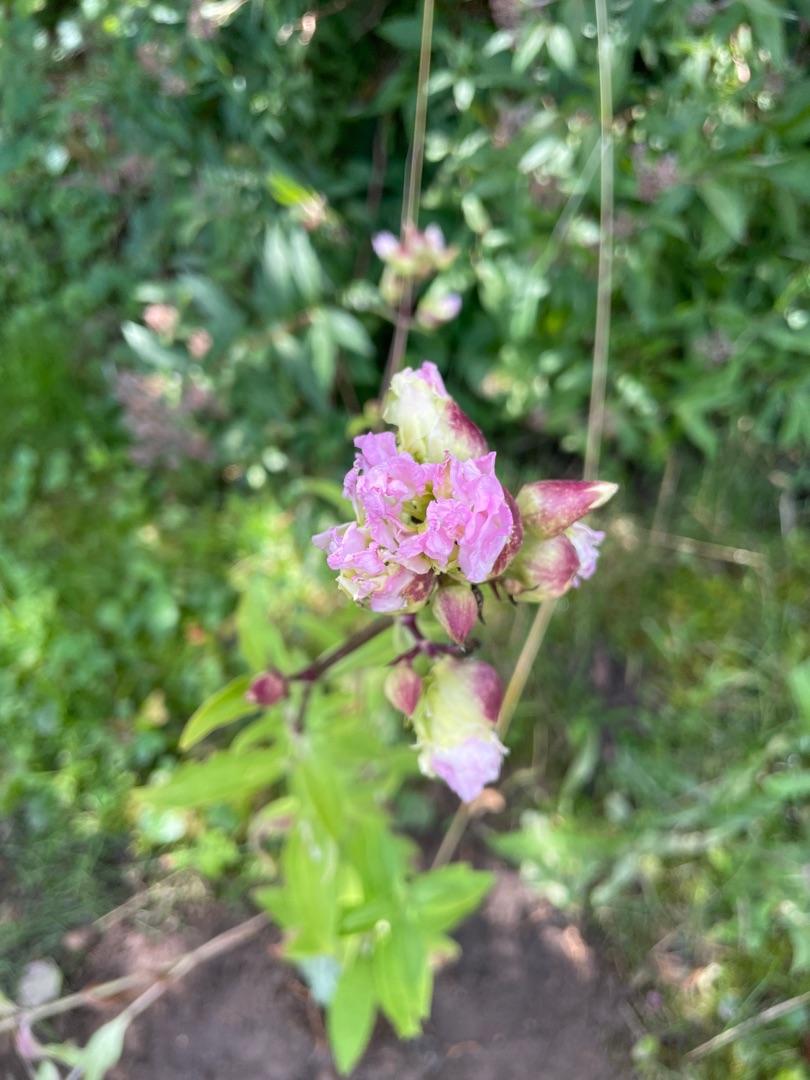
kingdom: Plantae
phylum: Tracheophyta
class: Magnoliopsida
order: Caryophyllales
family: Caryophyllaceae
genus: Saponaria
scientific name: Saponaria officinalis
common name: Sæbeurt
